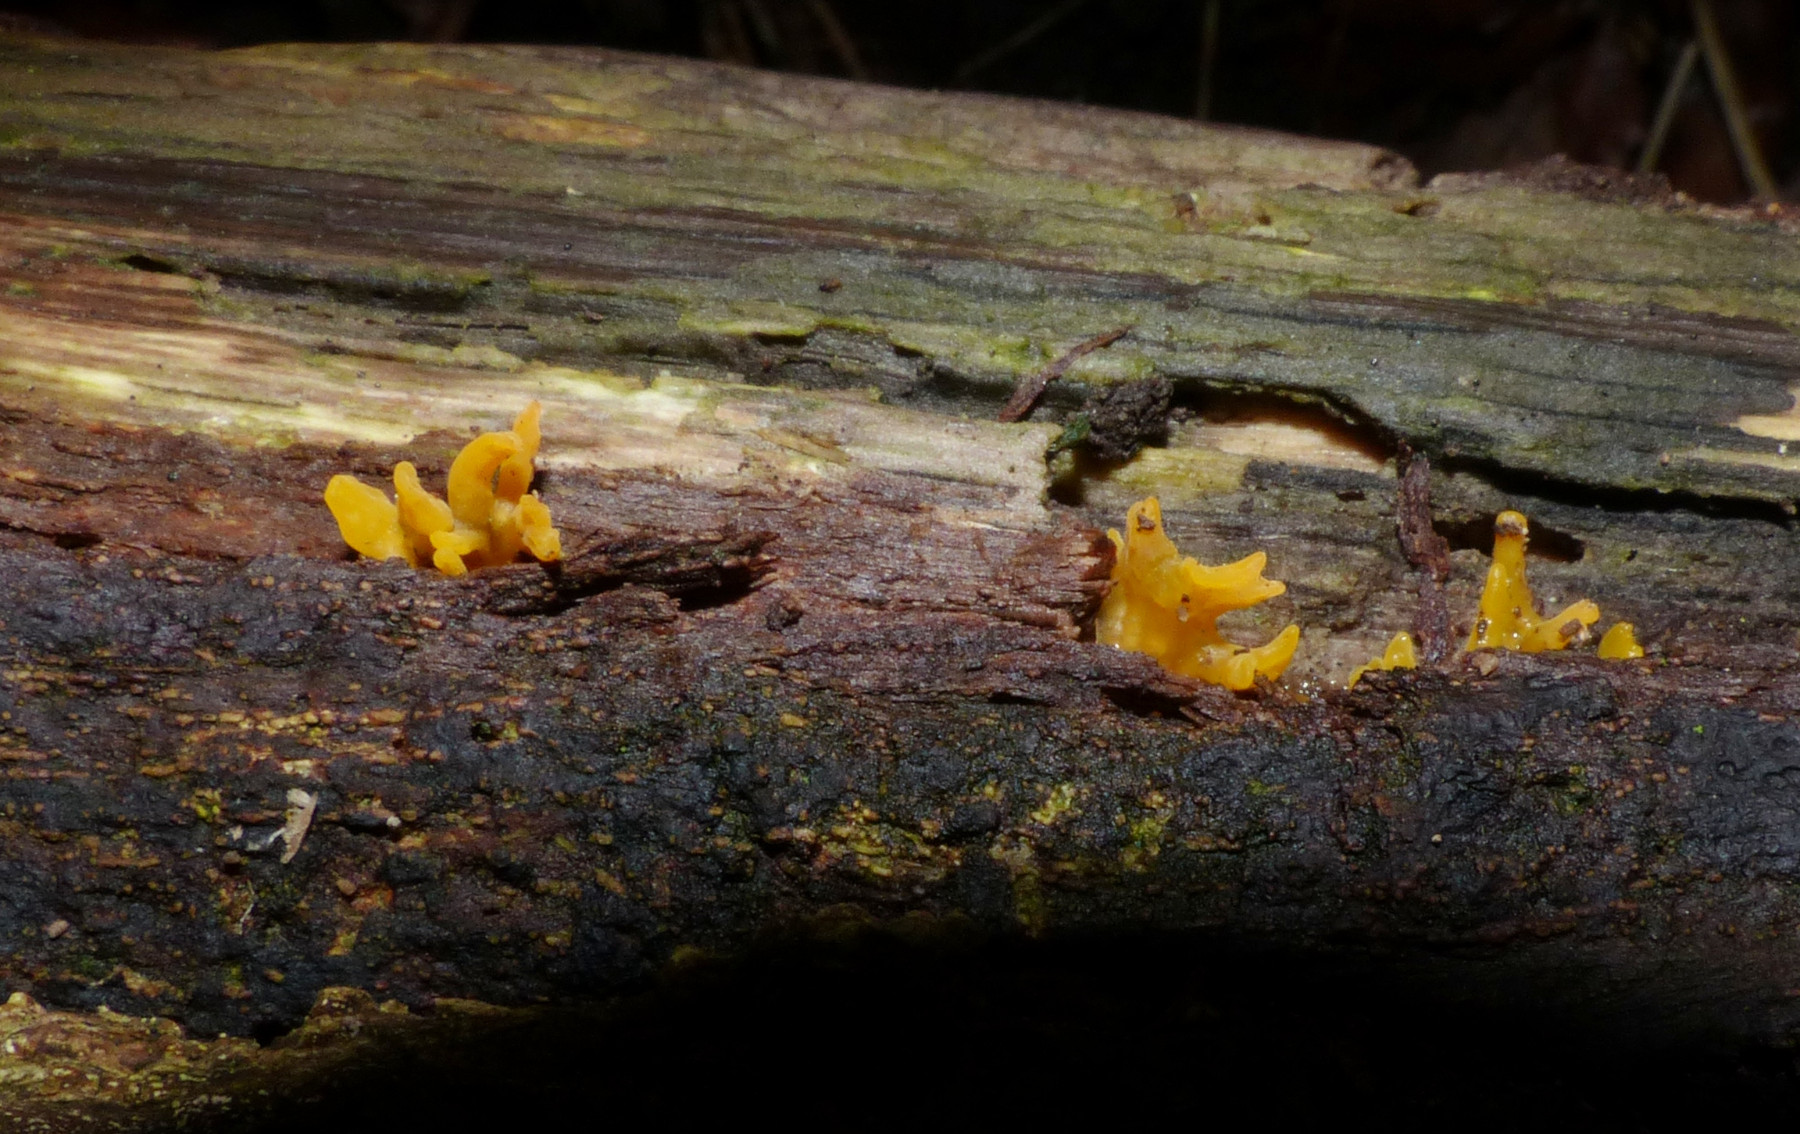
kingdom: Fungi
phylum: Basidiomycota
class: Dacrymycetes
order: Dacrymycetales
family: Dacrymycetaceae
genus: Calocera
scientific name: Calocera cornea
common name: liden guldgaffel
